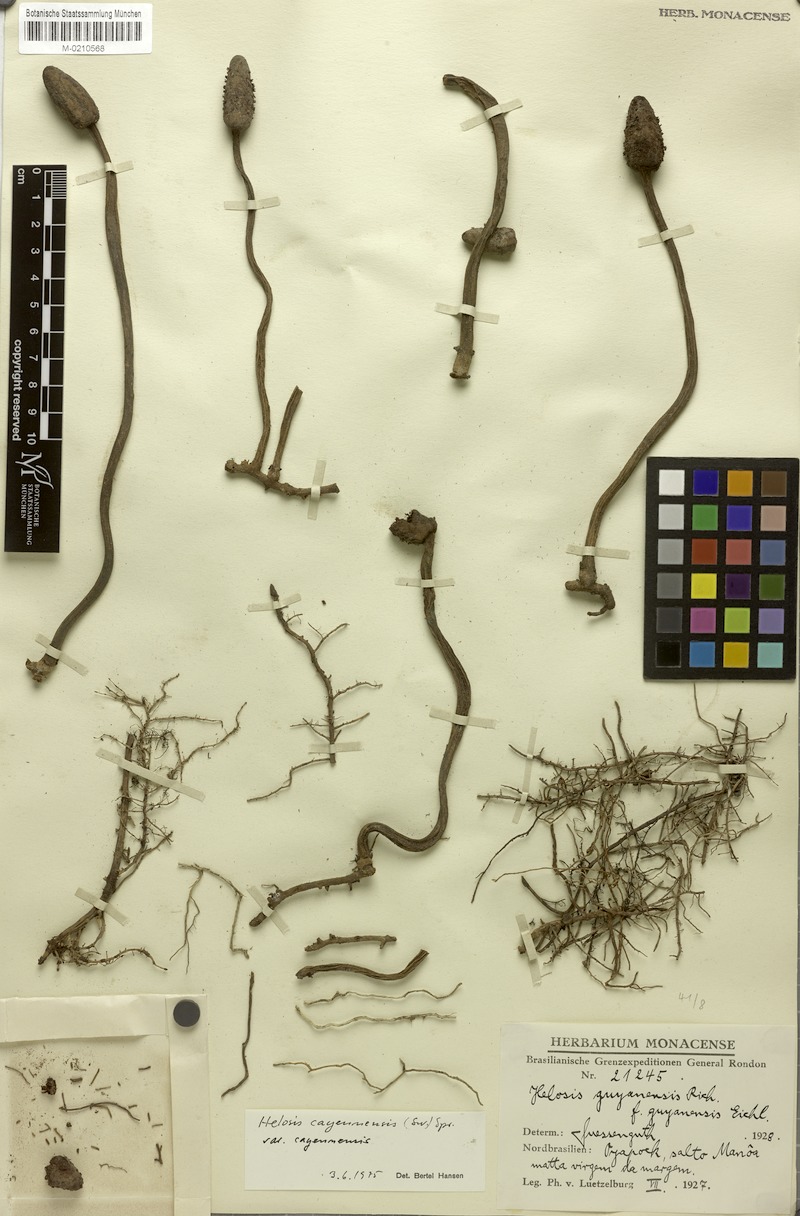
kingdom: Plantae
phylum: Tracheophyta
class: Magnoliopsida
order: Santalales
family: Balanophoraceae
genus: Helosis
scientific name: Helosis cayennensis
